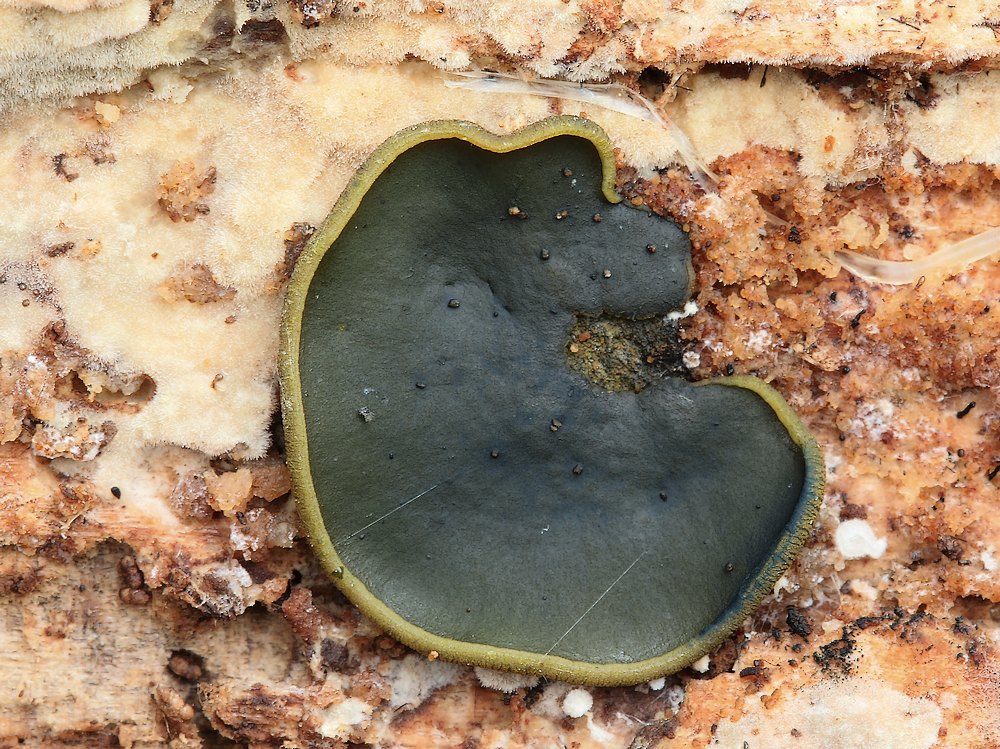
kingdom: Fungi
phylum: Ascomycota
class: Dothideomycetes
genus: Catinella
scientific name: Catinella olivacea
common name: olivenskive
